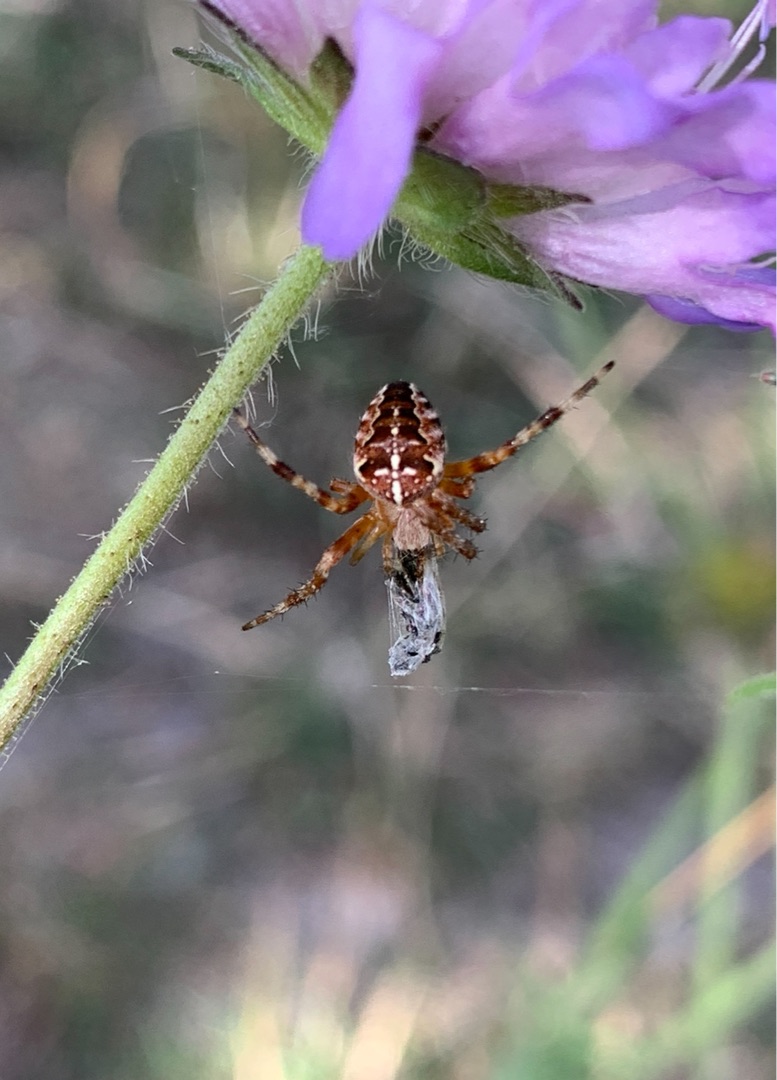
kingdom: Animalia
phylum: Arthropoda
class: Arachnida
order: Araneae
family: Araneidae
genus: Araneus
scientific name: Araneus diadematus
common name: Korsedderkop
